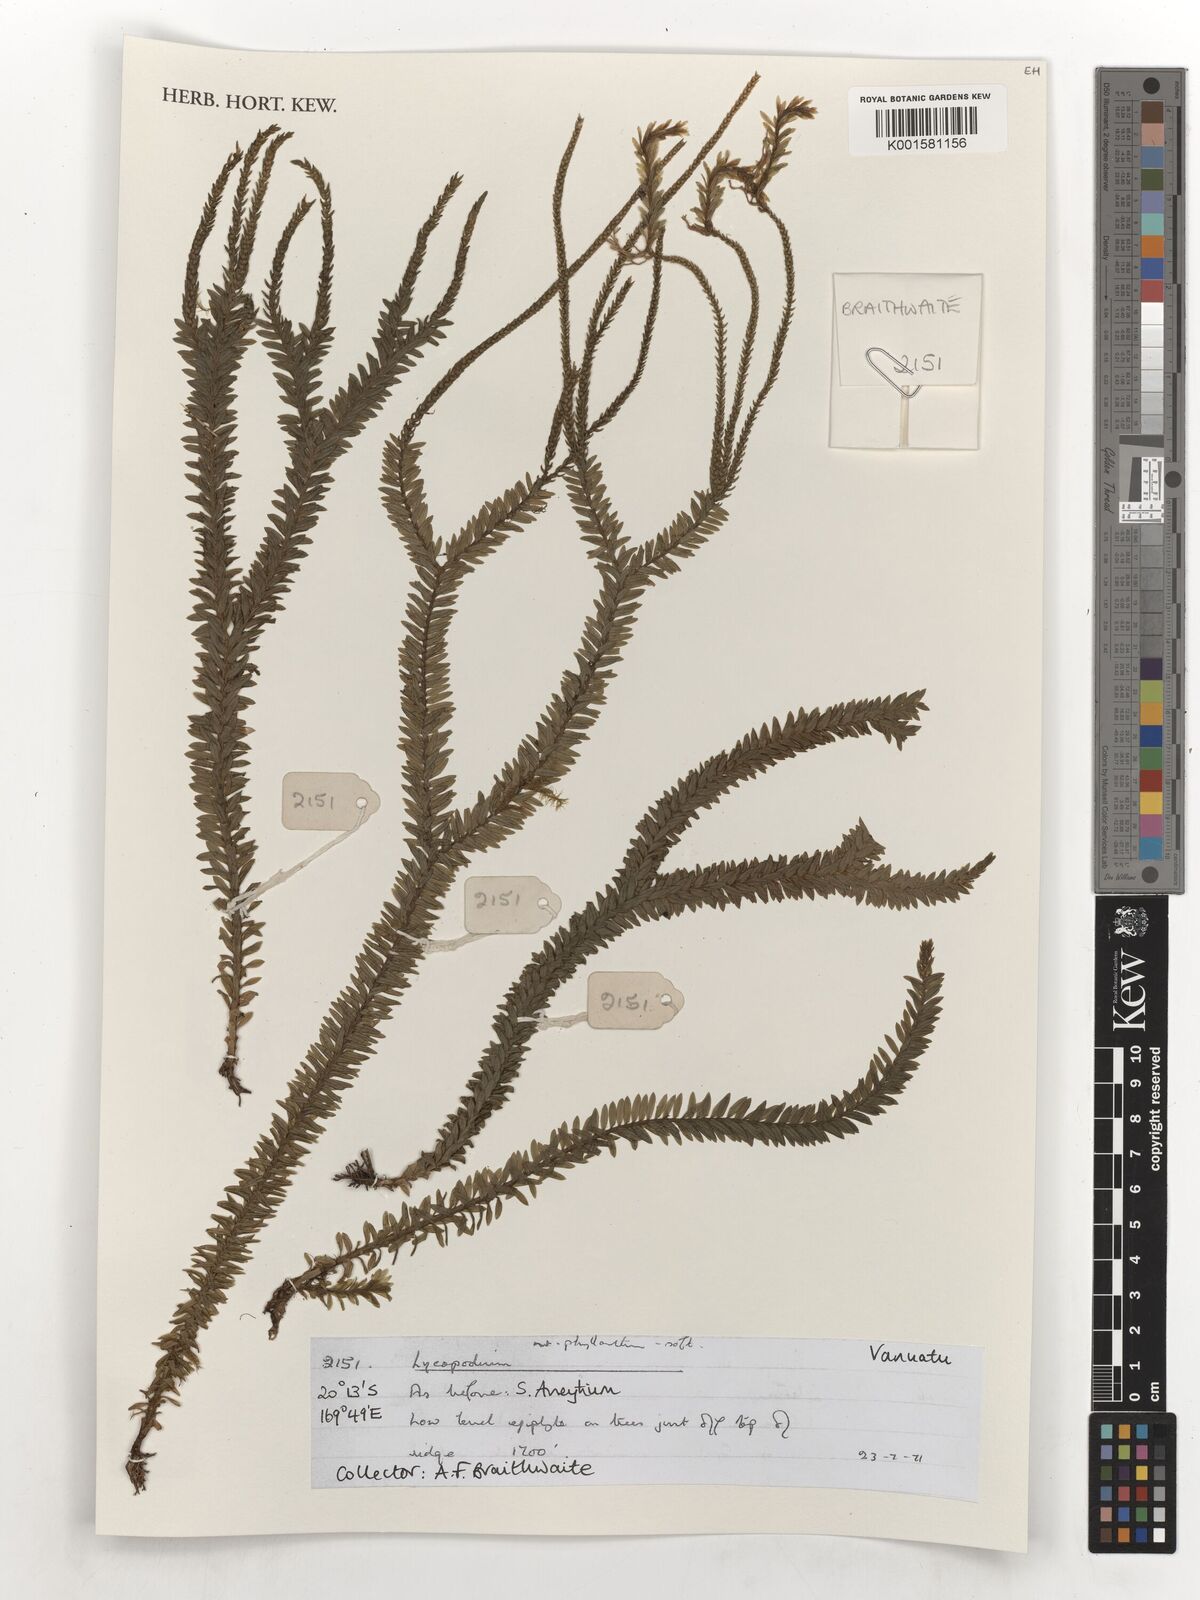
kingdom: Plantae
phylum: Tracheophyta
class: Lycopodiopsida
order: Lycopodiales
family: Lycopodiaceae
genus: Phlegmariurus
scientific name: Phlegmariurus phyllanthus
